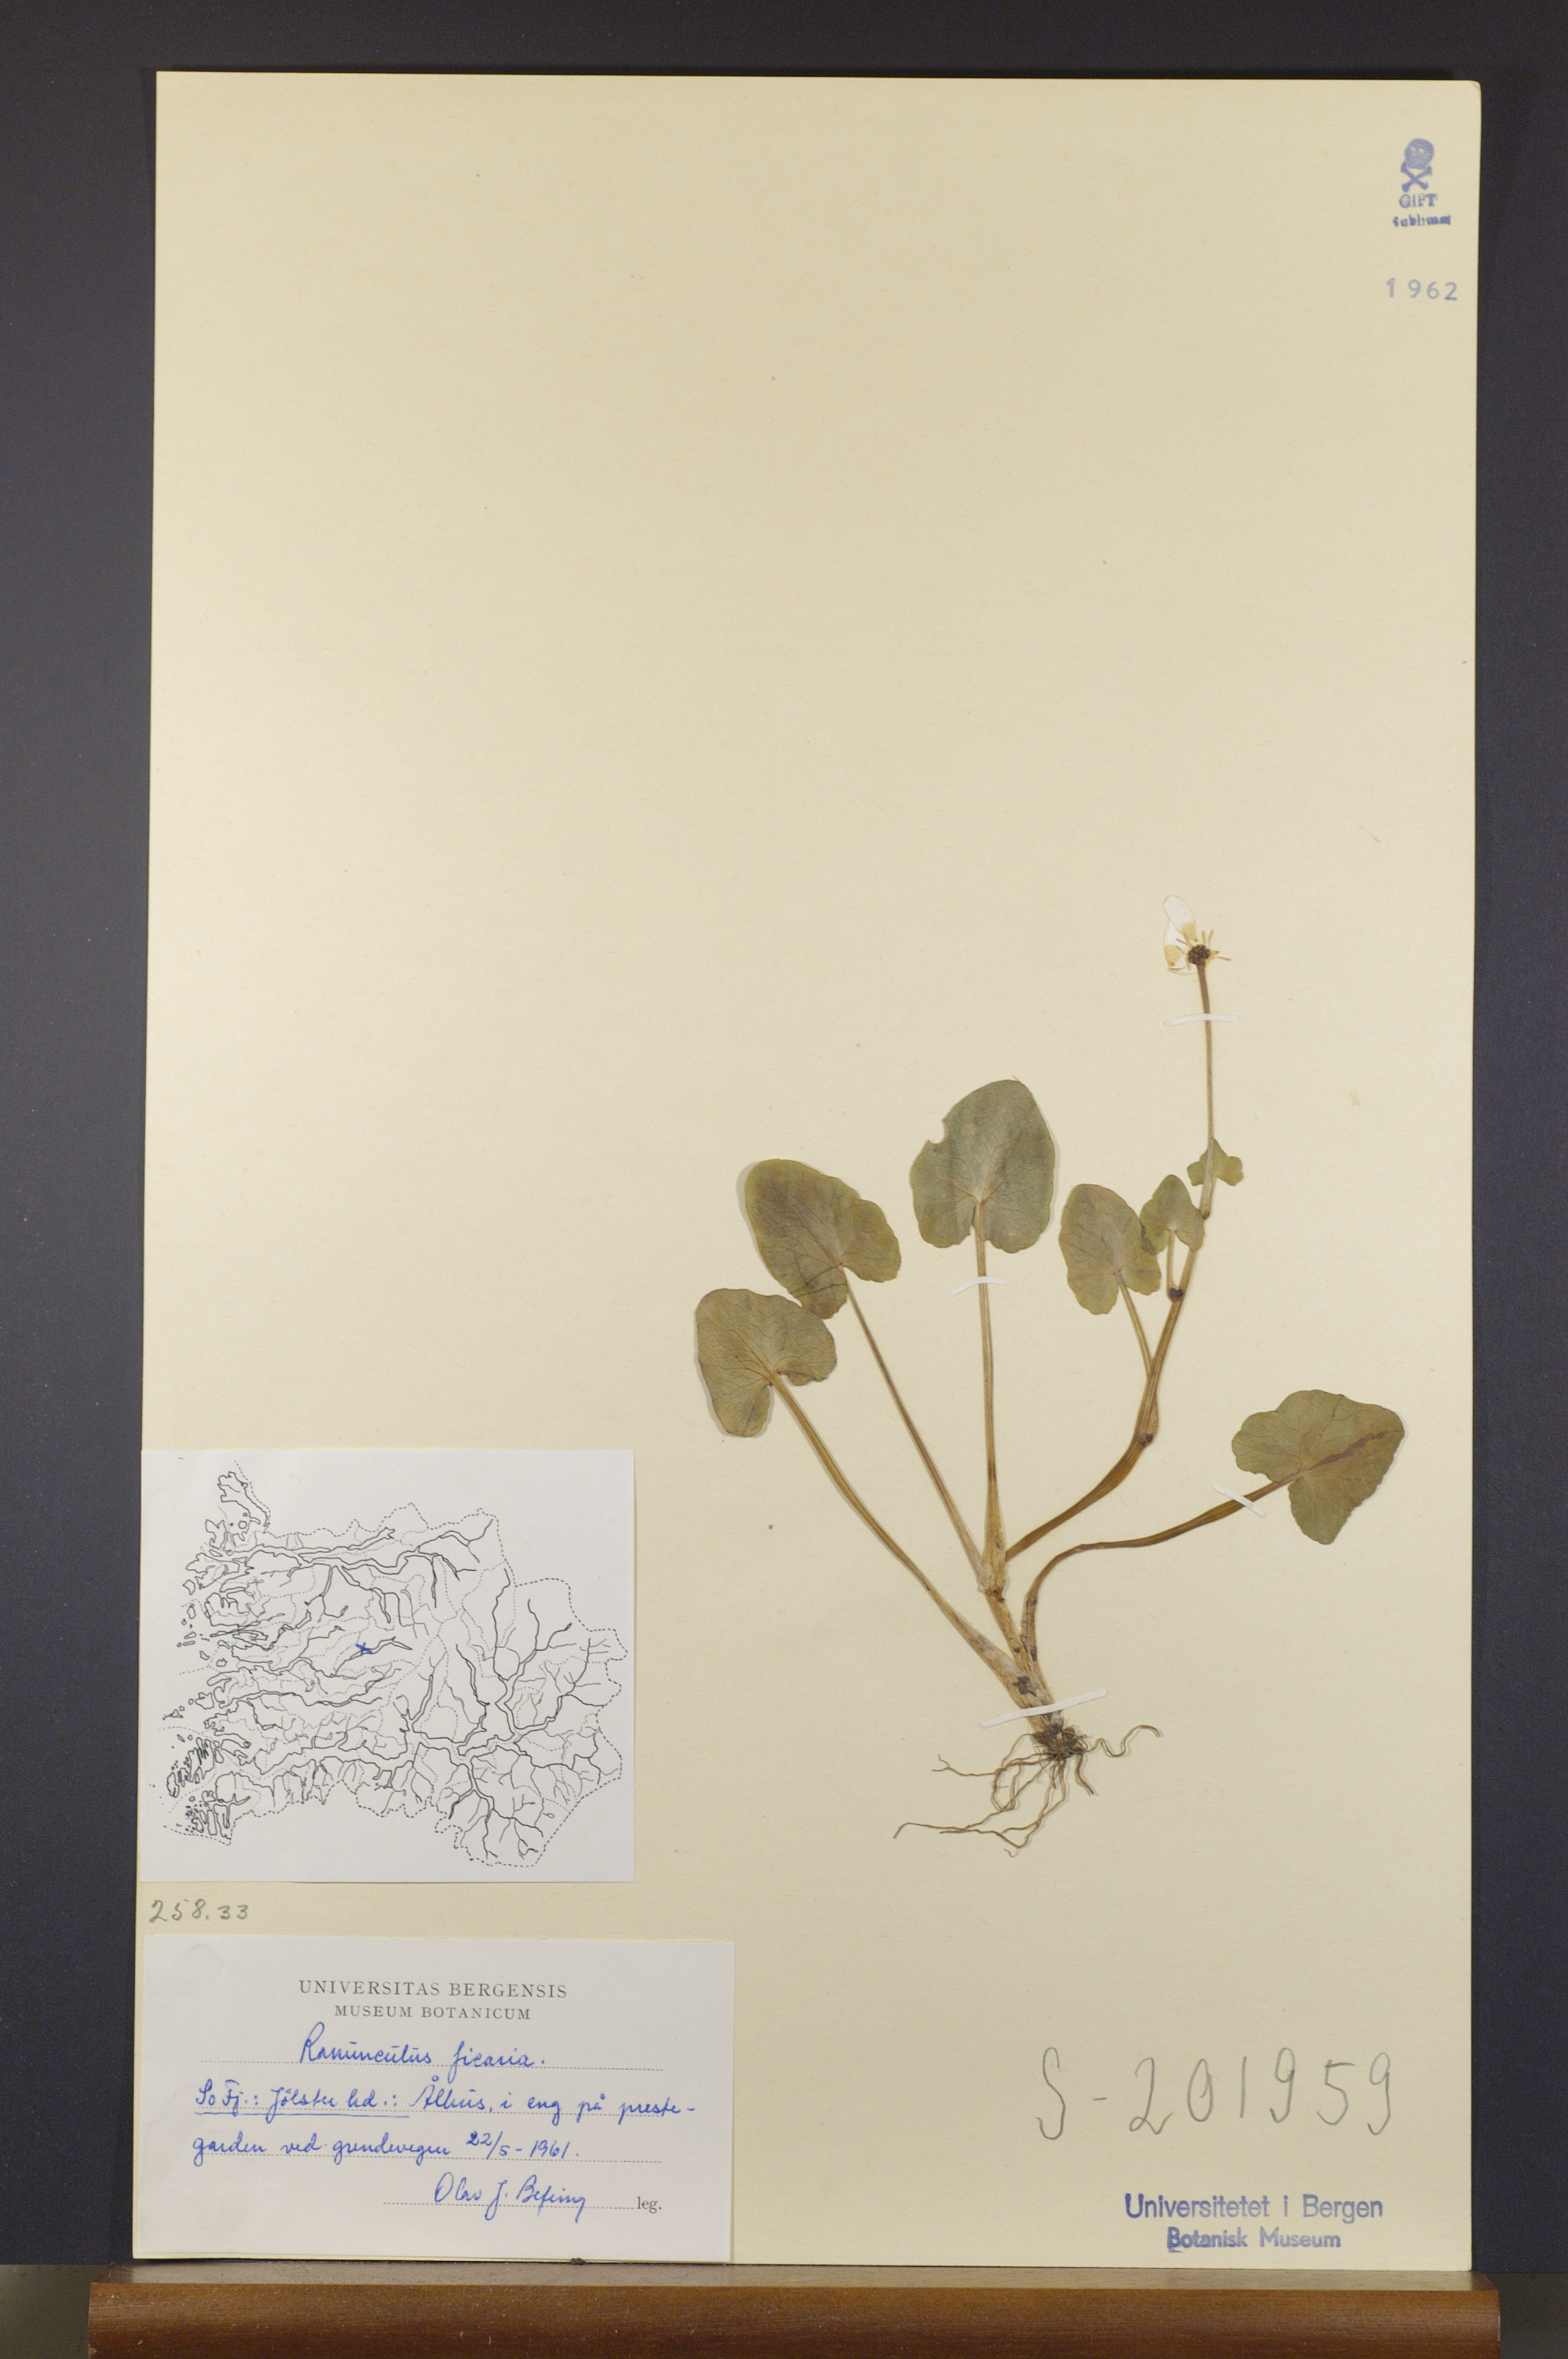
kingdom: Plantae
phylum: Tracheophyta
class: Magnoliopsida
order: Ranunculales
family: Ranunculaceae
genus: Ficaria
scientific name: Ficaria verna
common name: Lesser celandine
